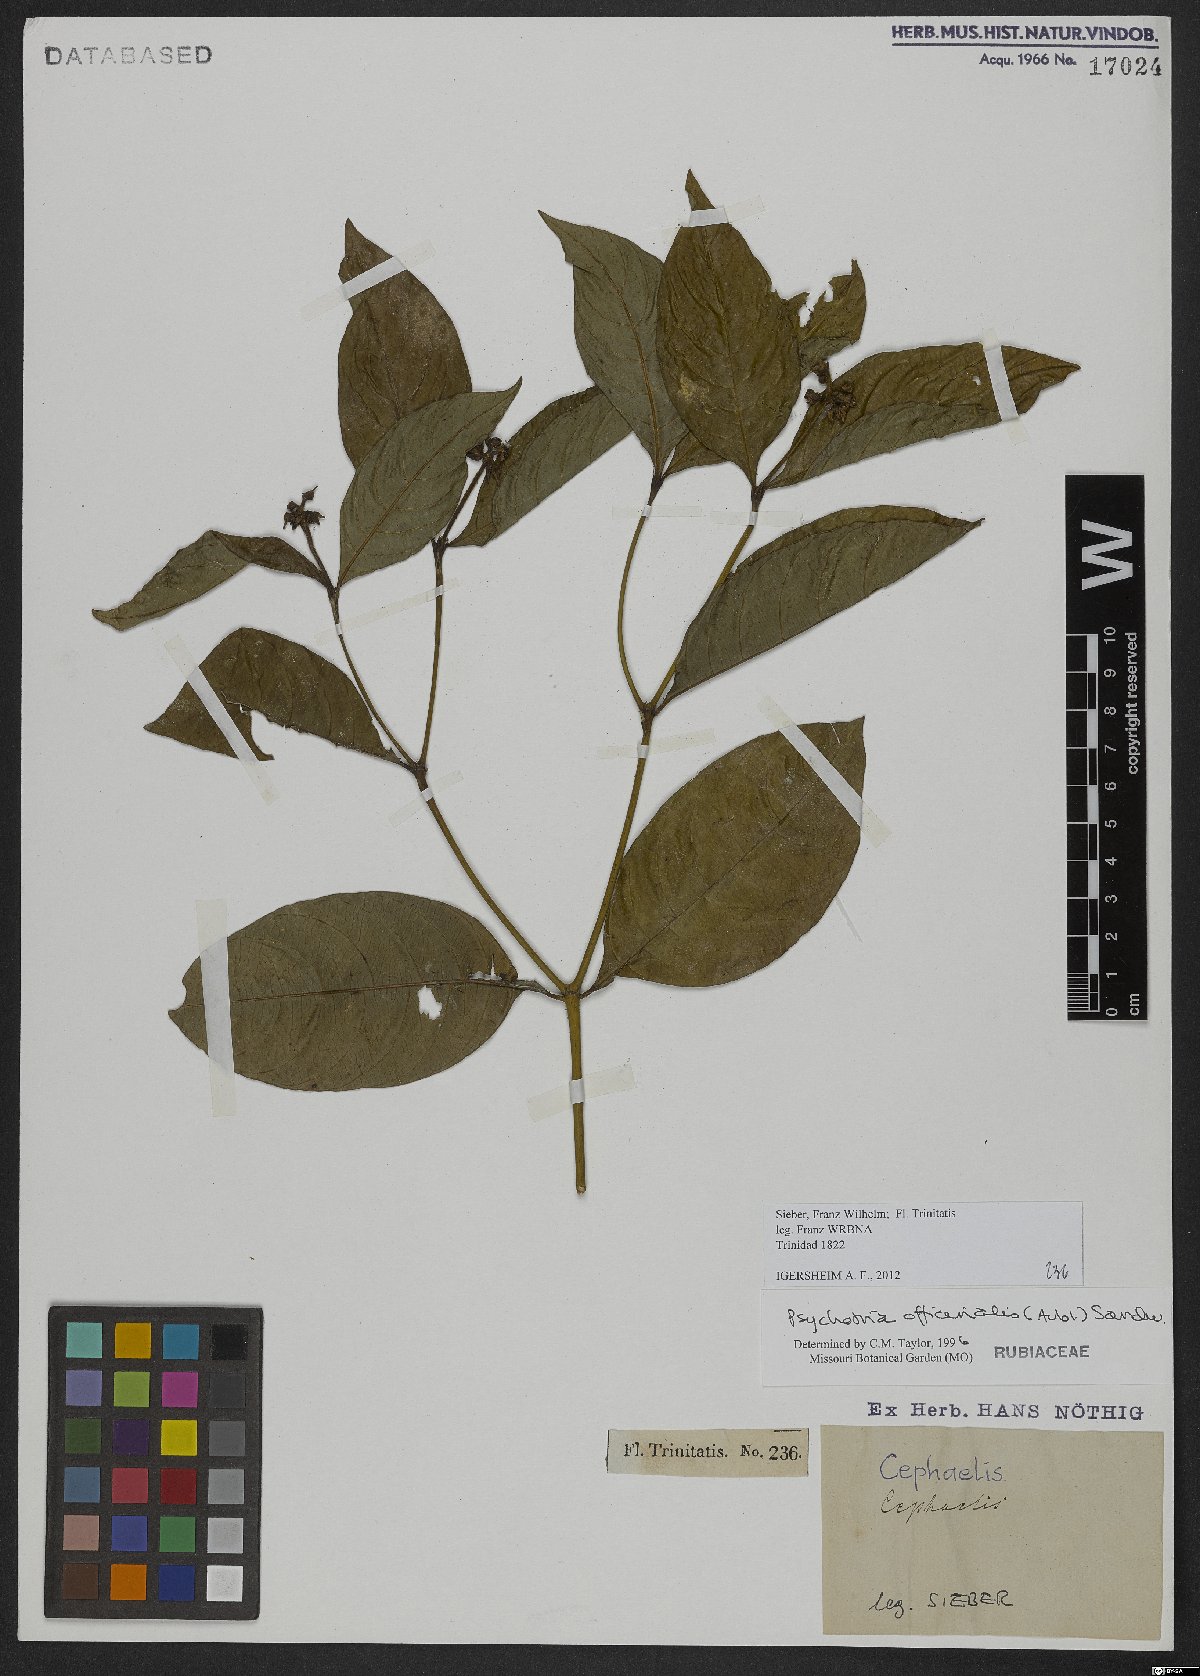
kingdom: Plantae
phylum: Tracheophyta
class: Magnoliopsida
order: Gentianales
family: Rubiaceae
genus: Palicourea
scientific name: Palicourea tenerior
